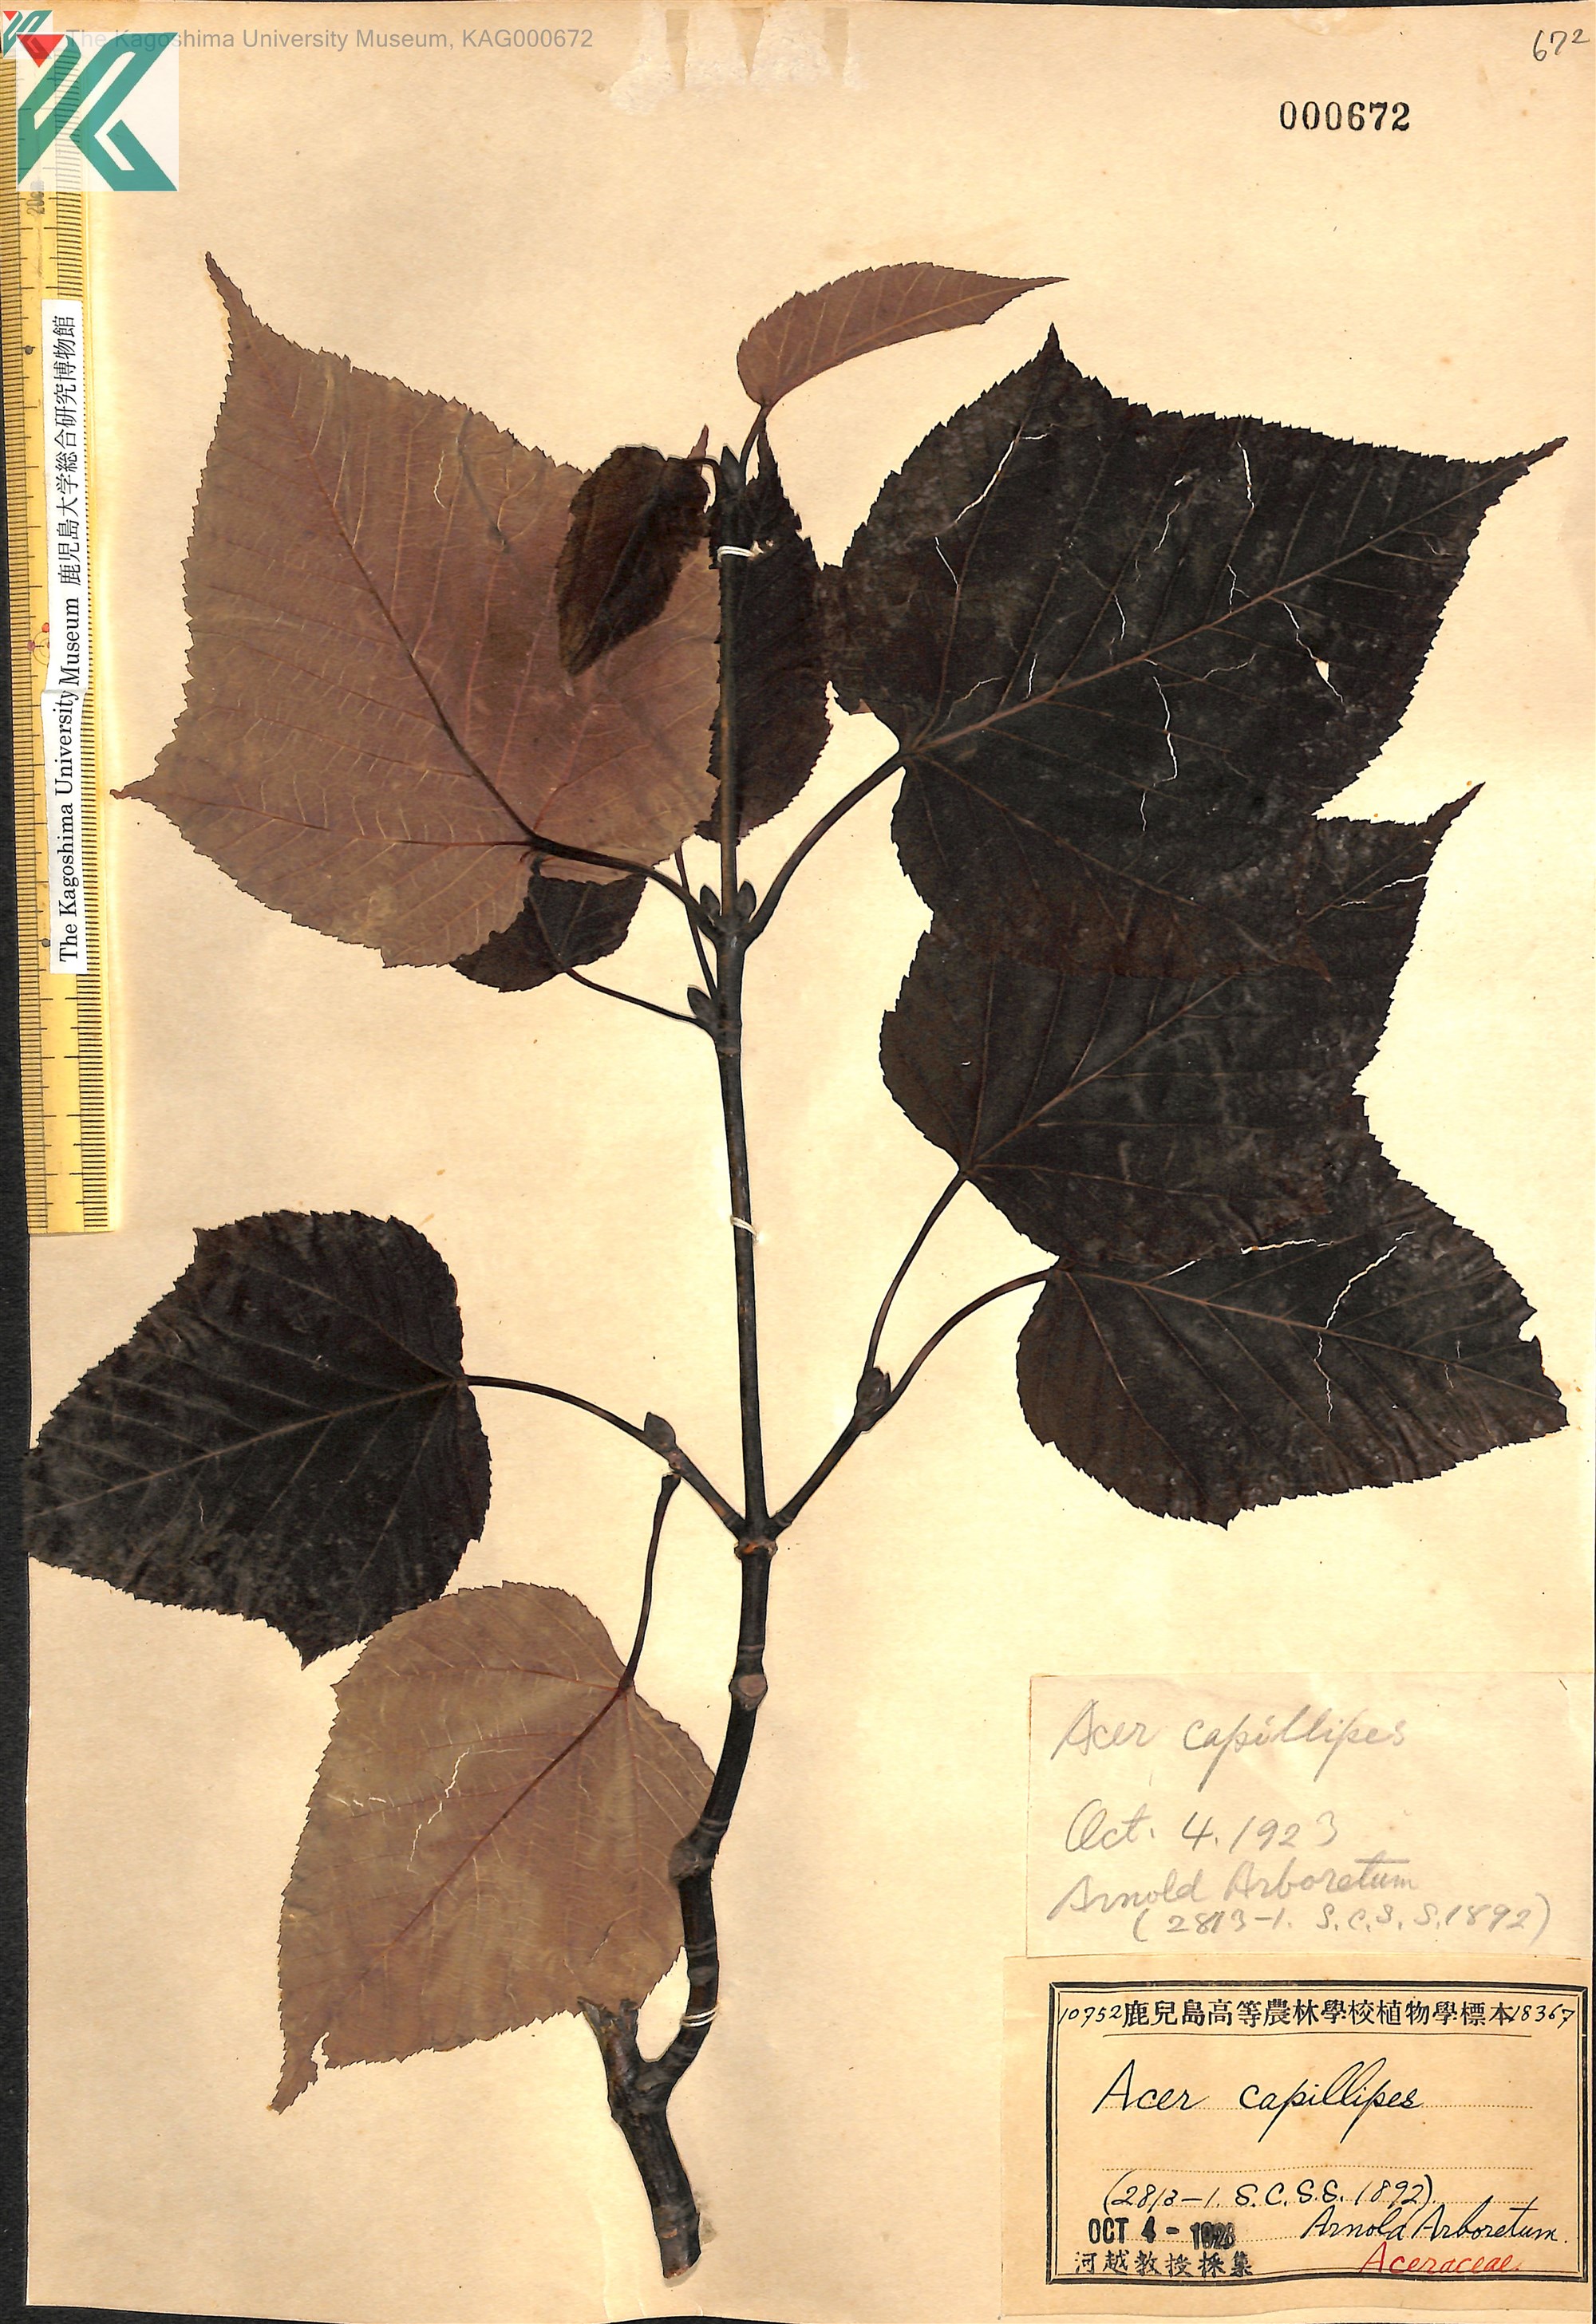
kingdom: Plantae
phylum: Tracheophyta
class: Magnoliopsida
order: Sapindales
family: Sapindaceae
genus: Acer
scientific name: Acer capillipes
